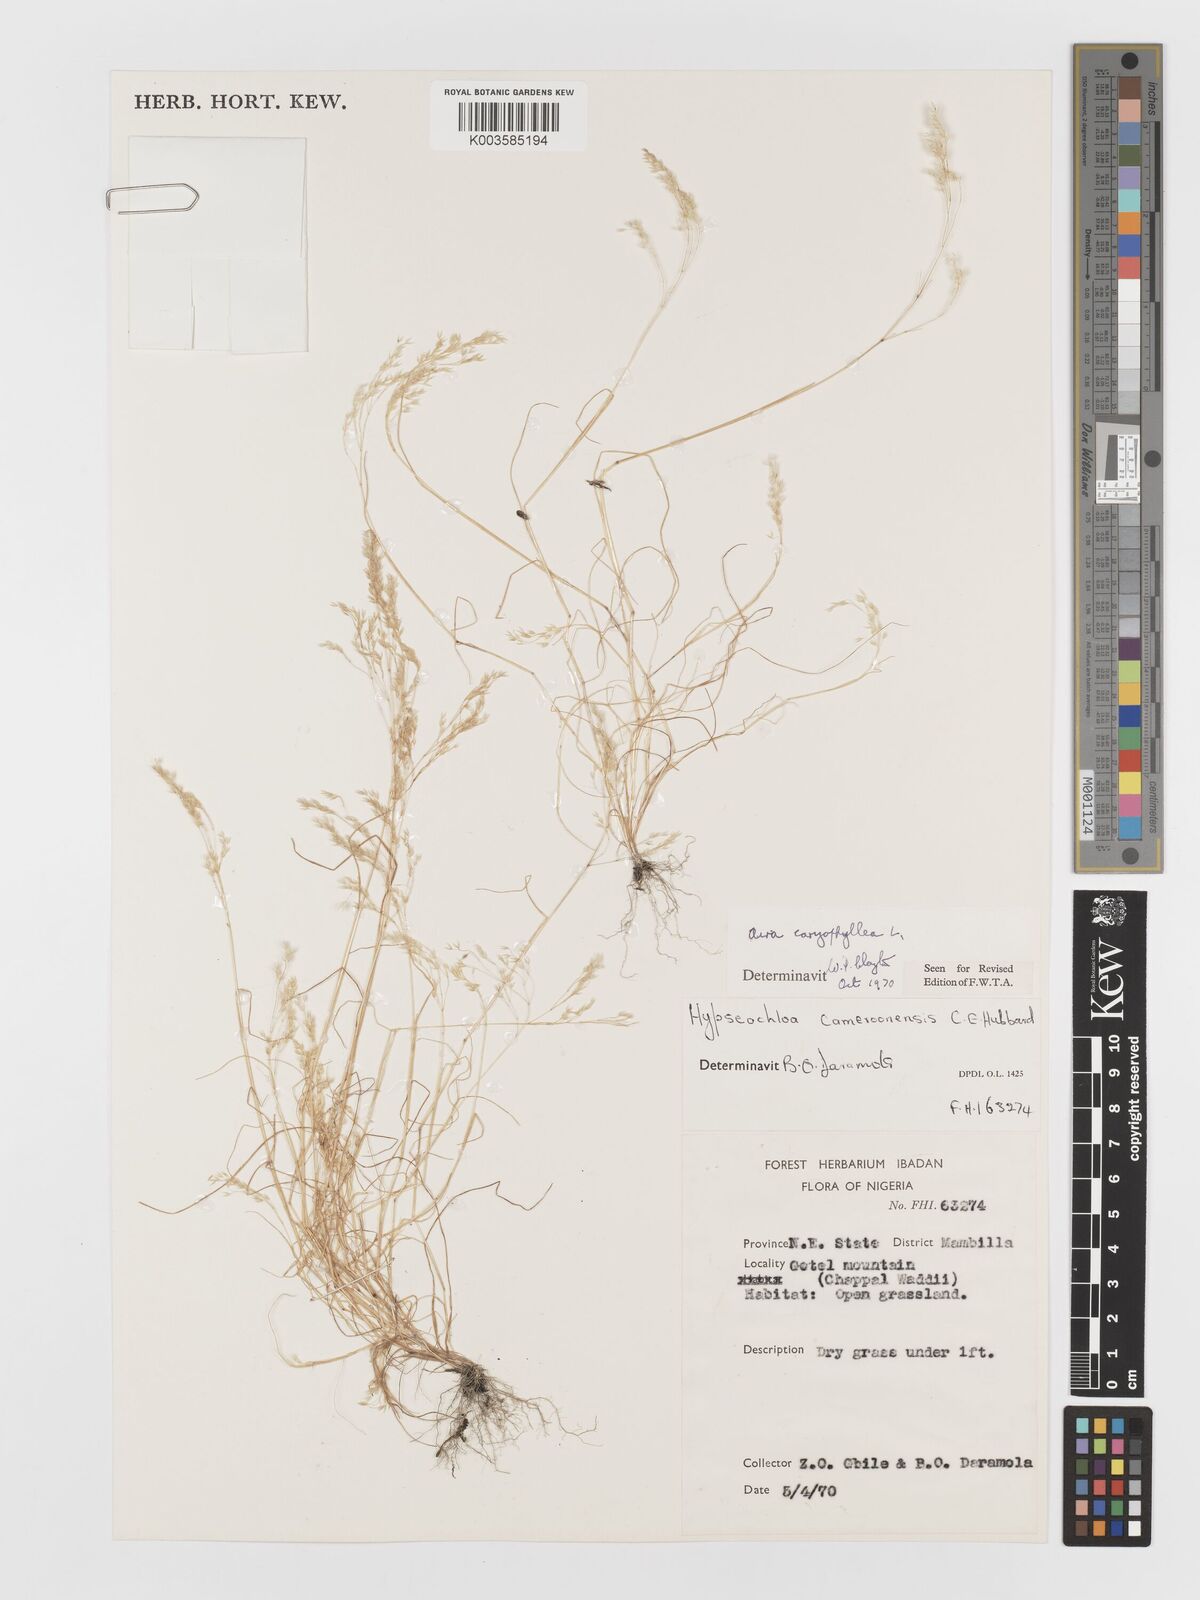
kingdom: Plantae
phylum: Tracheophyta
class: Liliopsida
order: Poales
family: Poaceae
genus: Aira
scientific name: Aira caryophyllea
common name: Silver hairgrass
